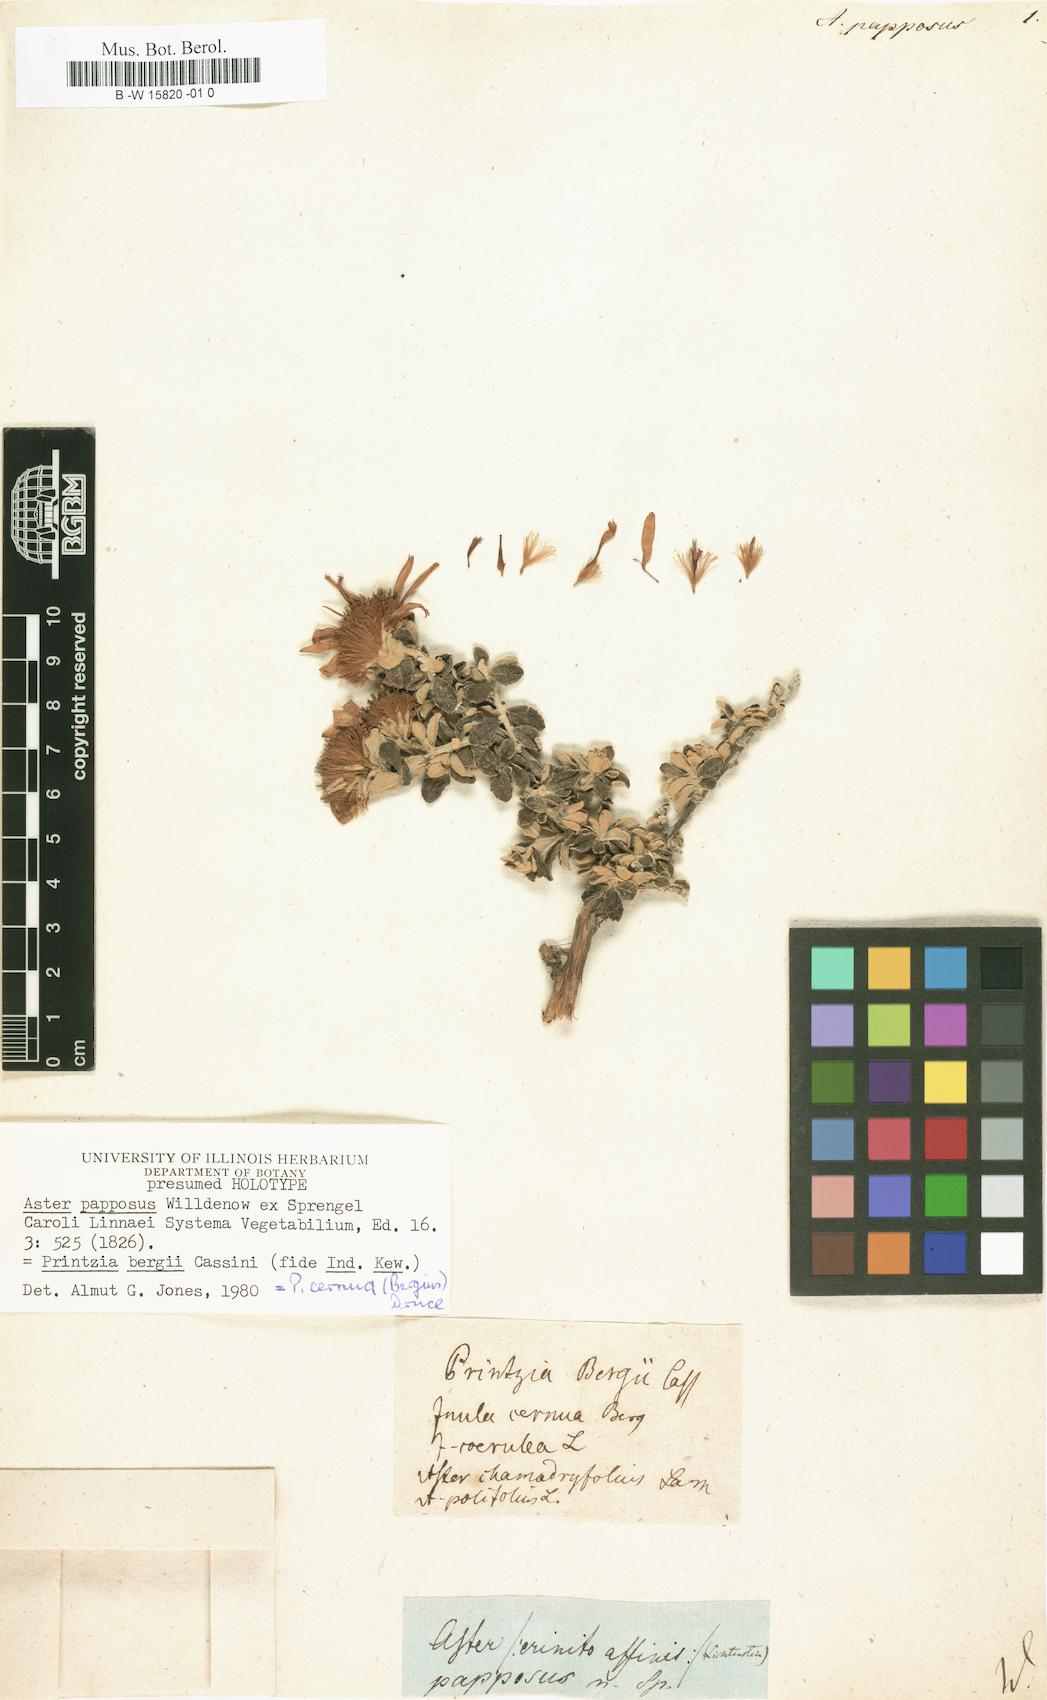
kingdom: Plantae
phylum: Tracheophyta
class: Magnoliopsida
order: Asterales
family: Asteraceae
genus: Printzia
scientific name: Printzia polifolia
